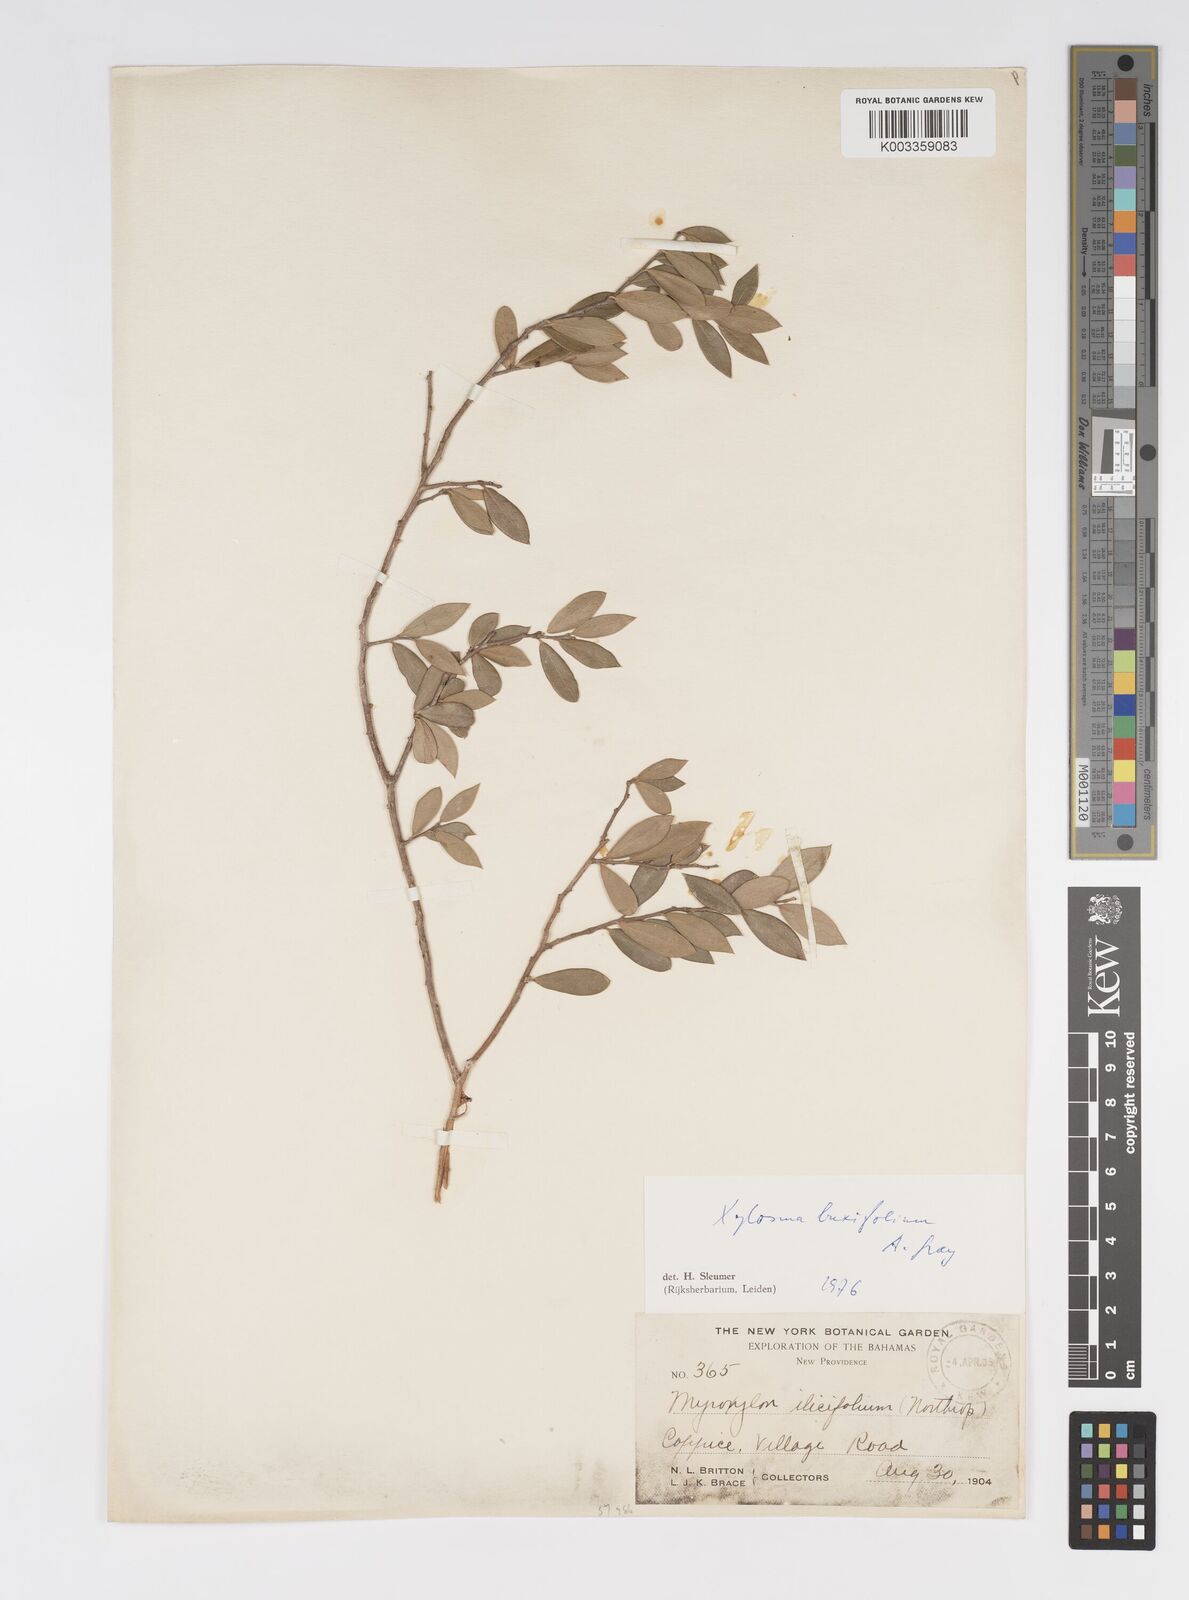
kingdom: Plantae
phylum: Tracheophyta
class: Magnoliopsida
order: Malpighiales
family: Salicaceae
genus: Xylosma
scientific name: Xylosma buxifolia
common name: Cockspur
